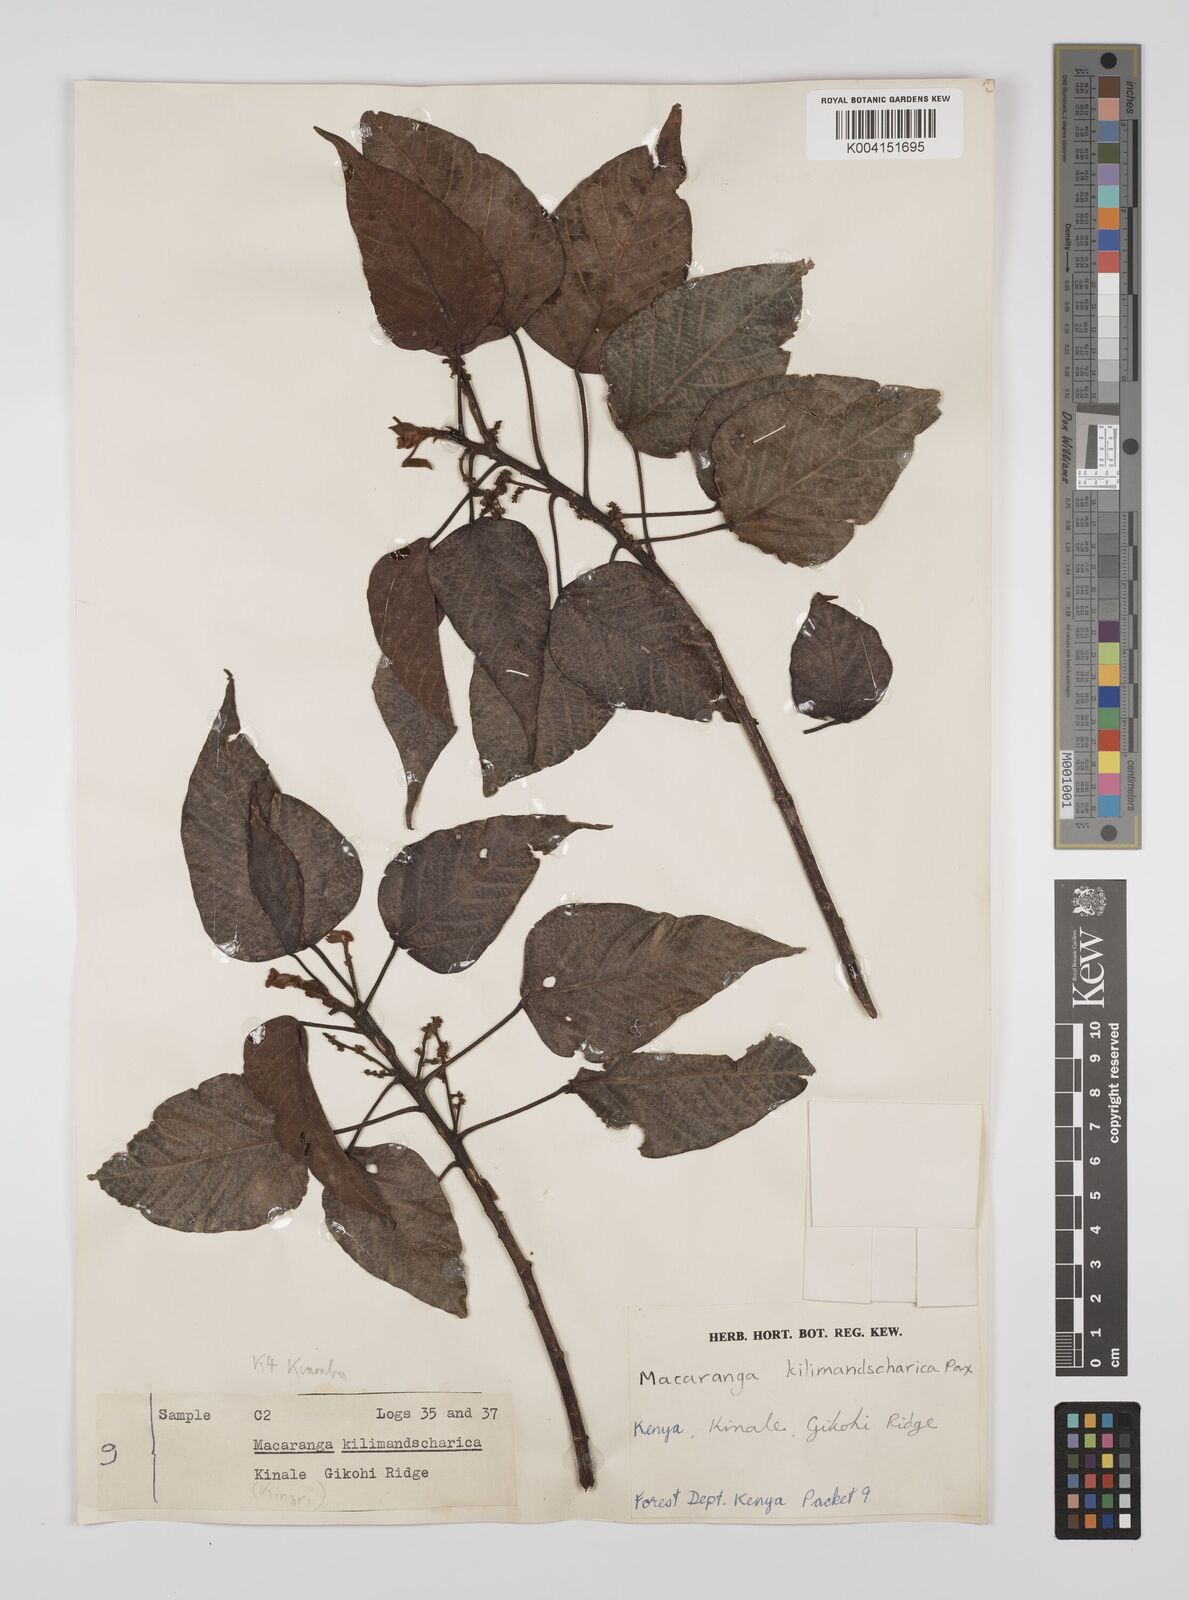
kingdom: Plantae
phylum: Tracheophyta
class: Magnoliopsida
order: Malpighiales
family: Euphorbiaceae
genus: Macaranga
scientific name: Macaranga kilimandscharica
